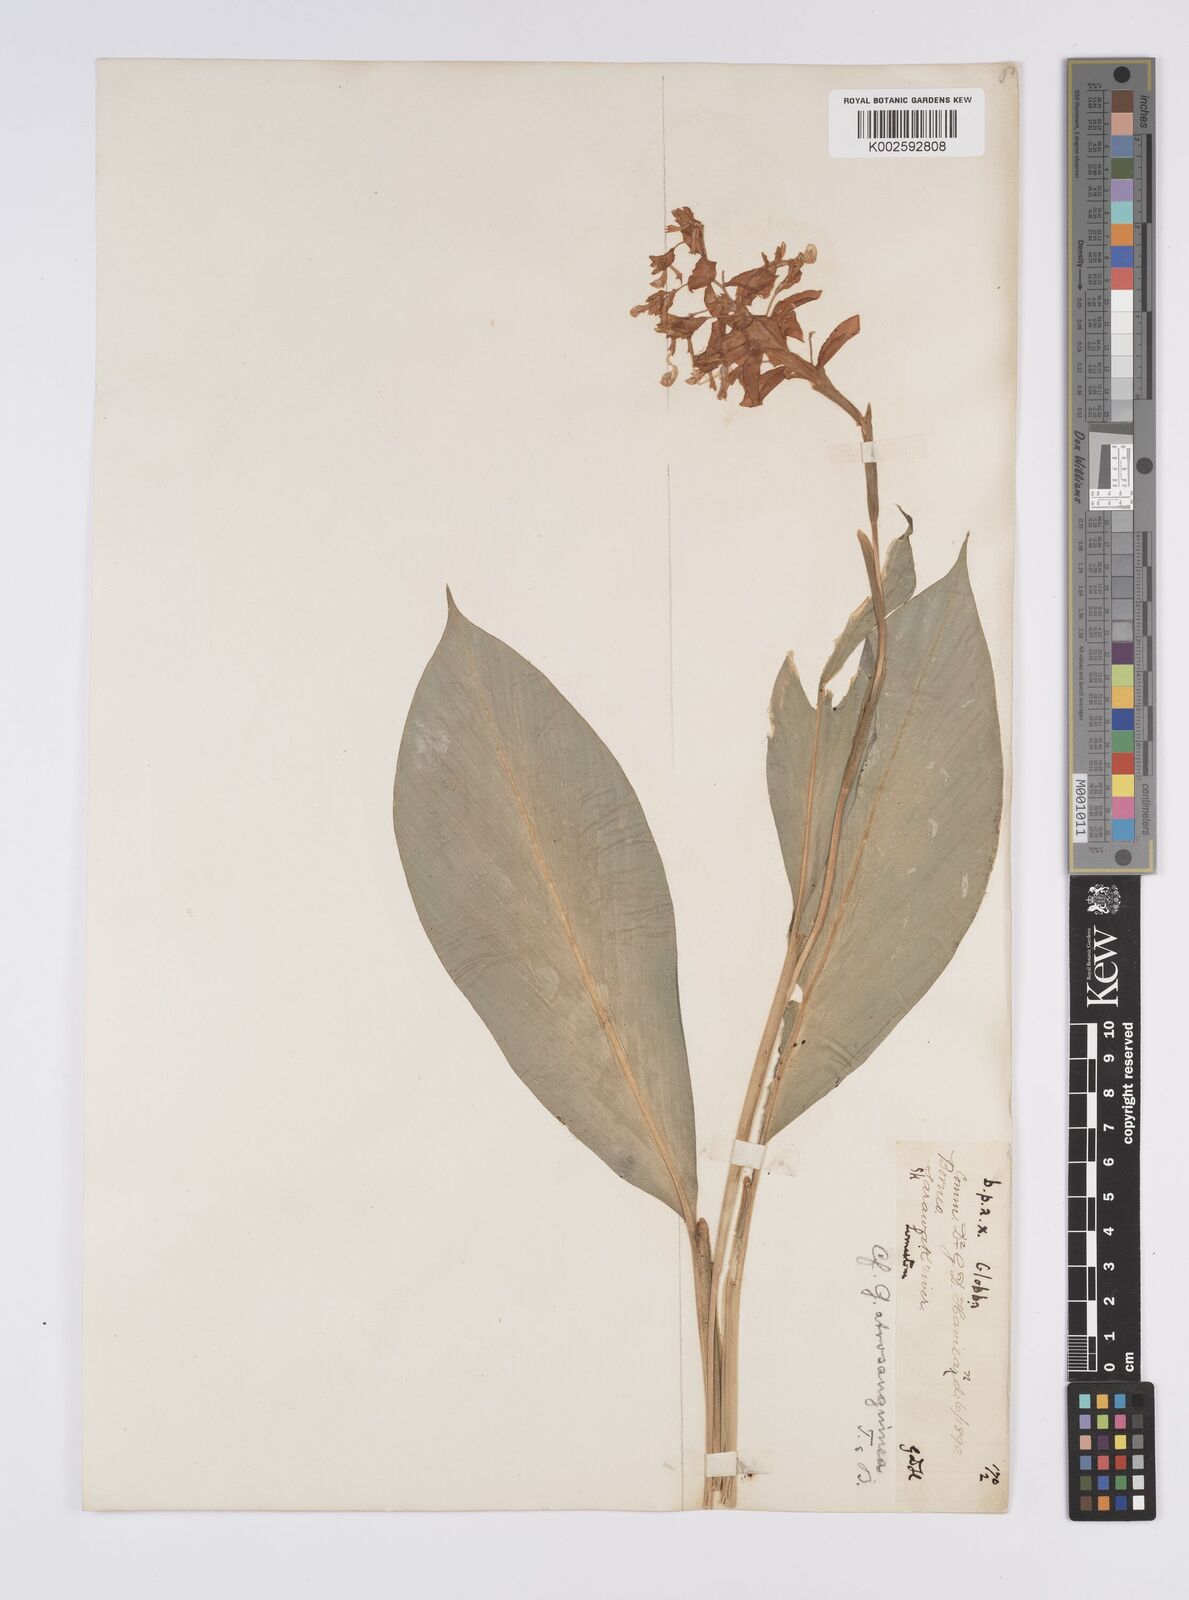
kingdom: Plantae
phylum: Tracheophyta
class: Liliopsida
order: Zingiberales
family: Zingiberaceae
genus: Globba
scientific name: Globba atrosanguinea
